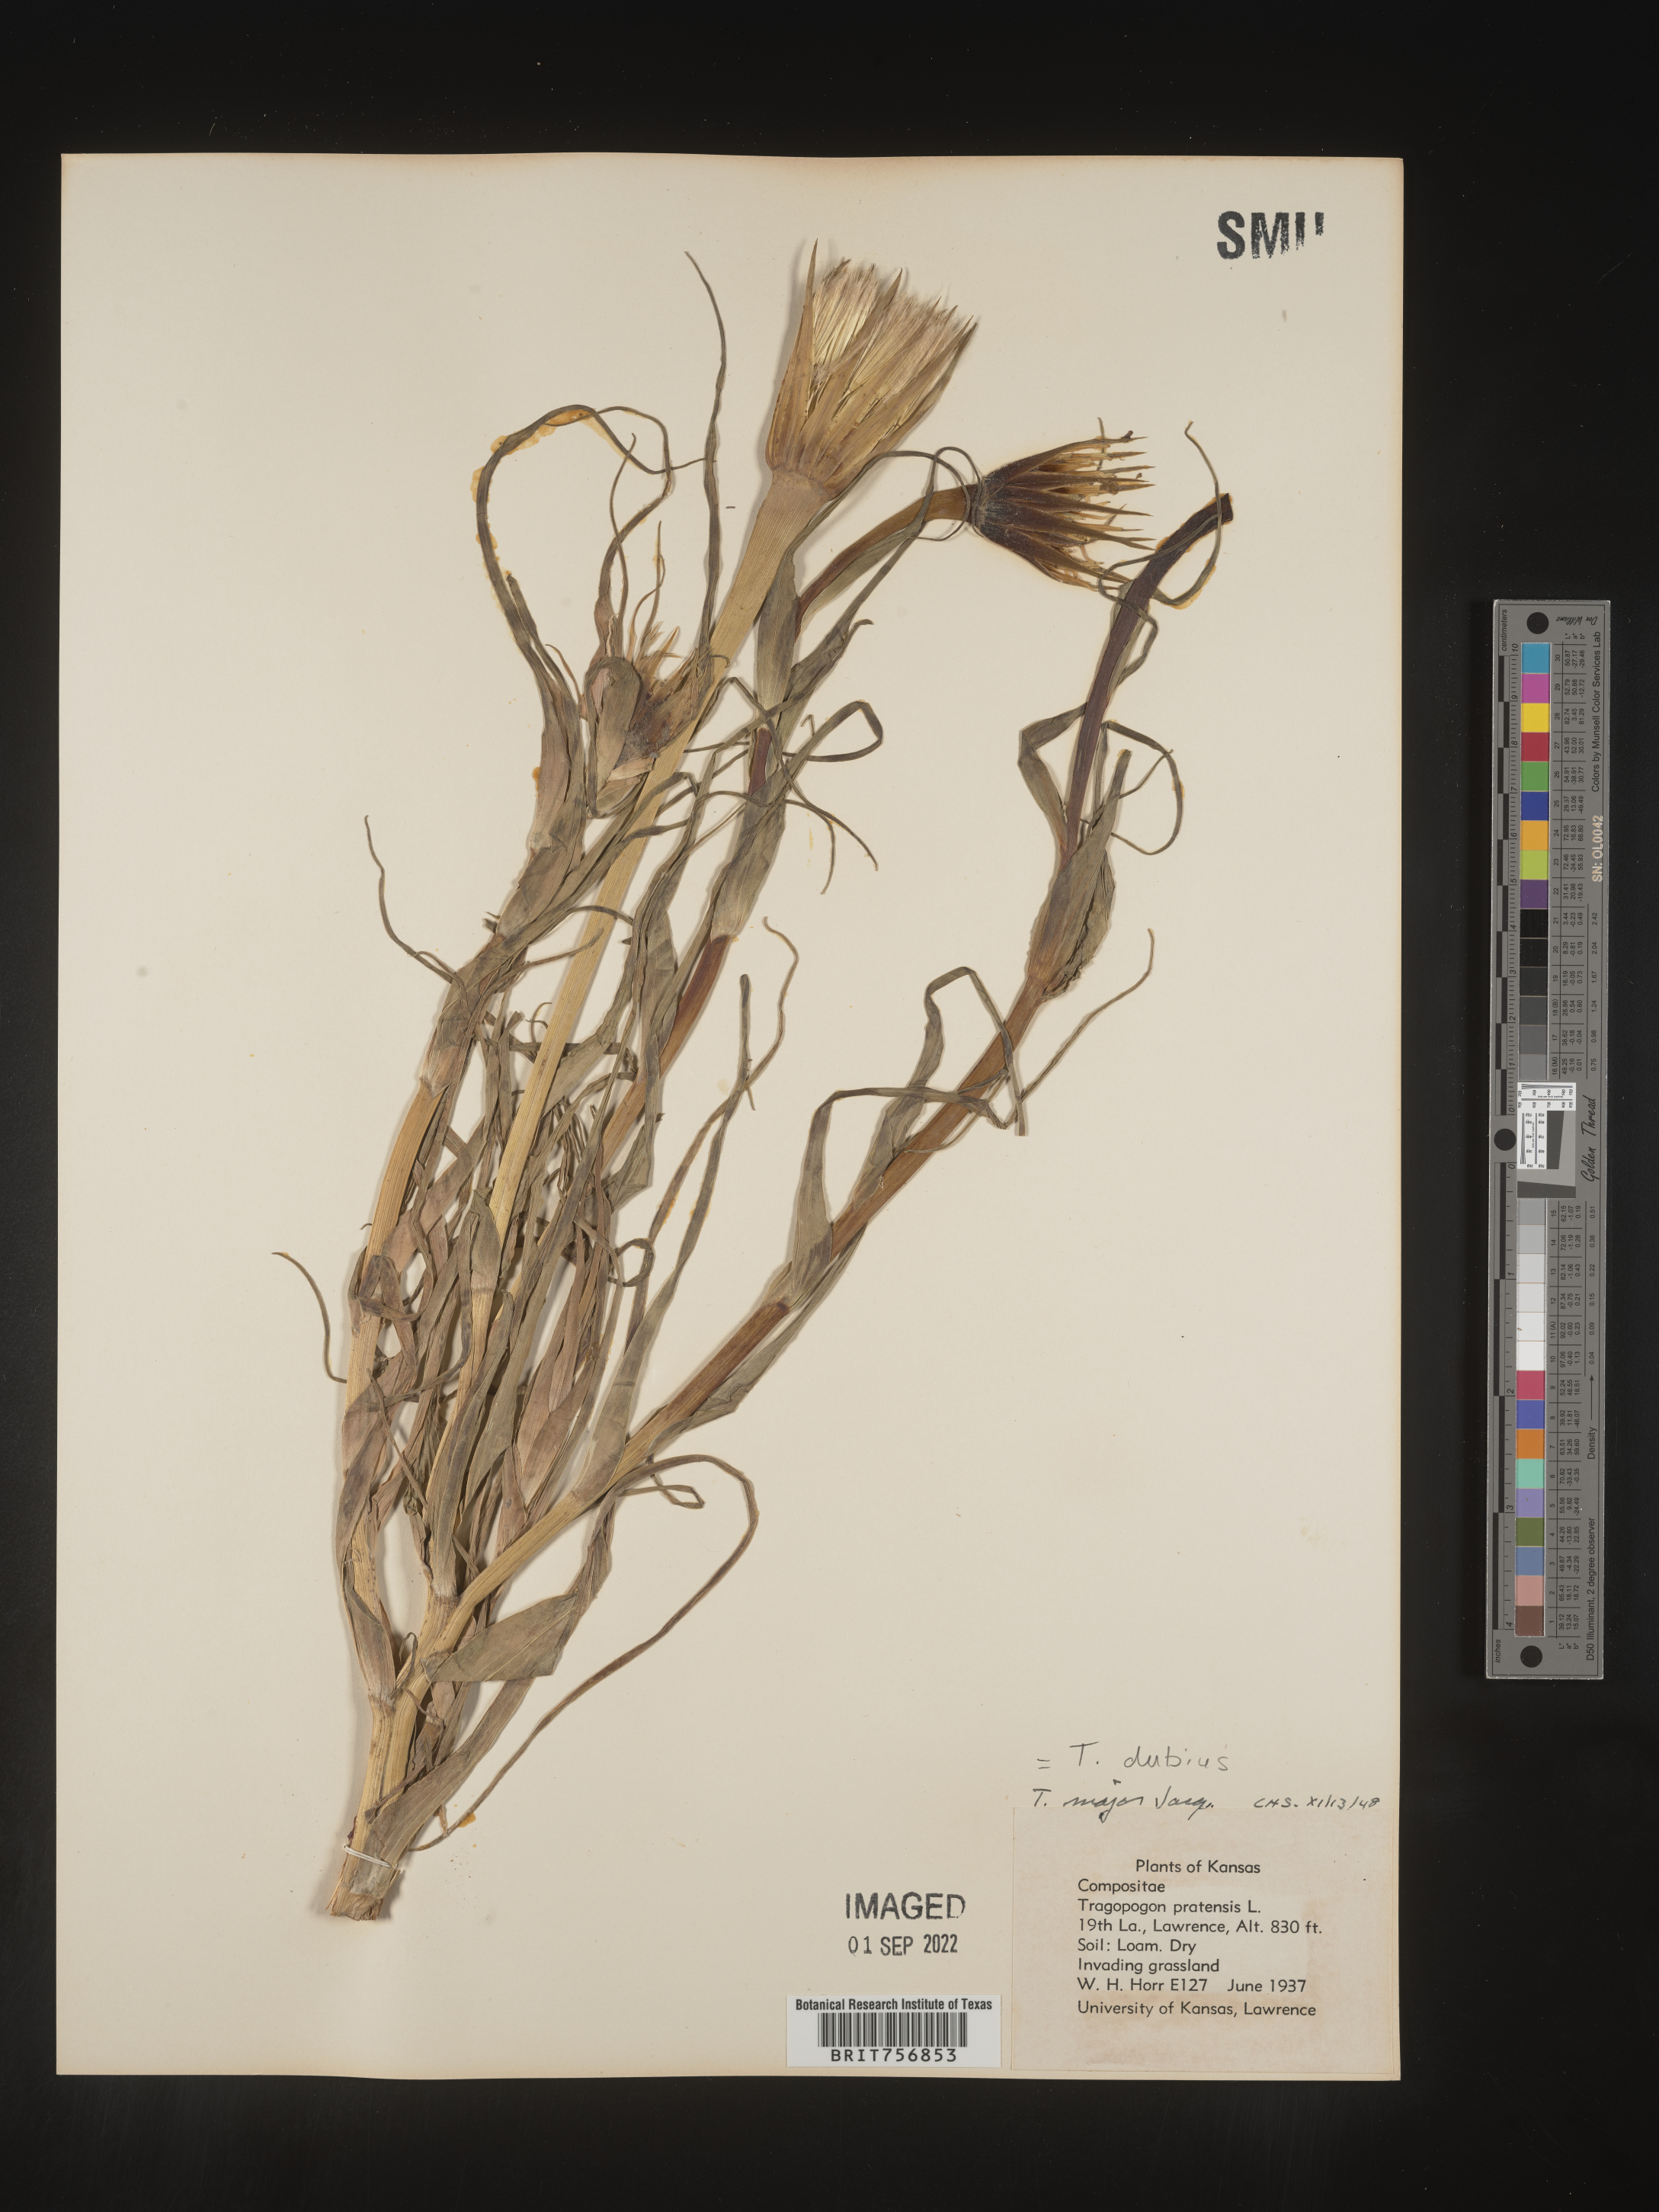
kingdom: Plantae
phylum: Tracheophyta
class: Magnoliopsida
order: Asterales
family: Asteraceae
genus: Tragopogon
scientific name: Tragopogon dubius
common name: Yellow salsify
